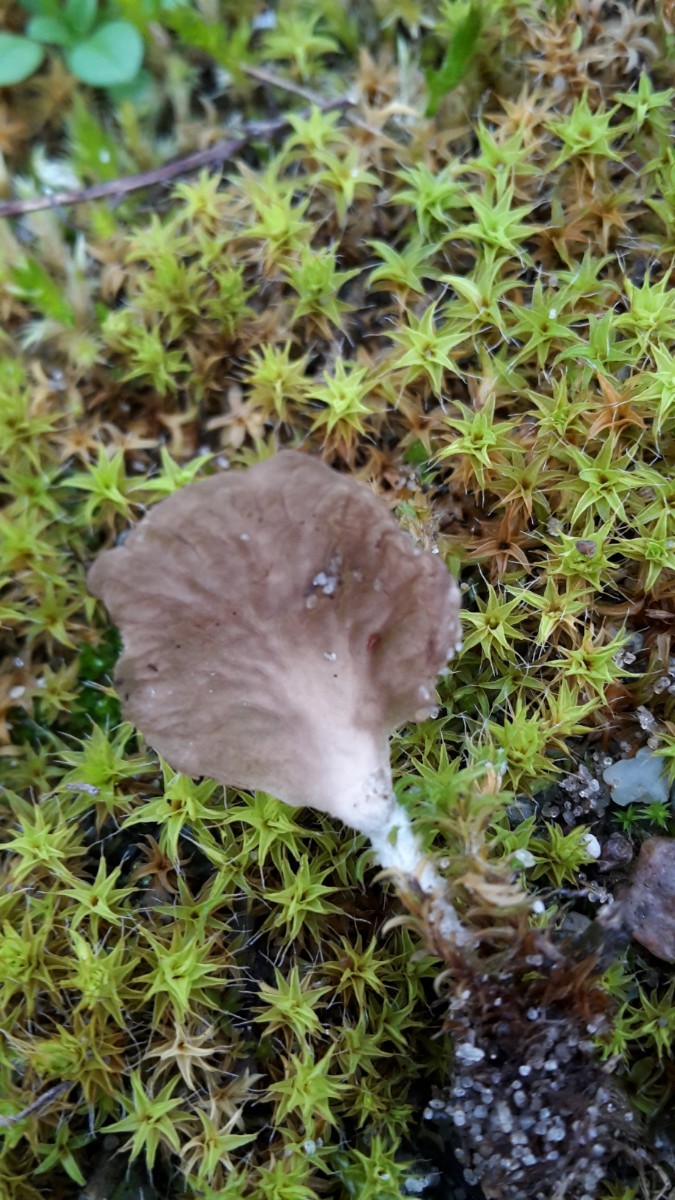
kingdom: Fungi
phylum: Basidiomycota
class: Agaricomycetes
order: Agaricales
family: Hygrophoraceae
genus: Arrhenia
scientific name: Arrhenia spathulata
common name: skæv fontænehat
